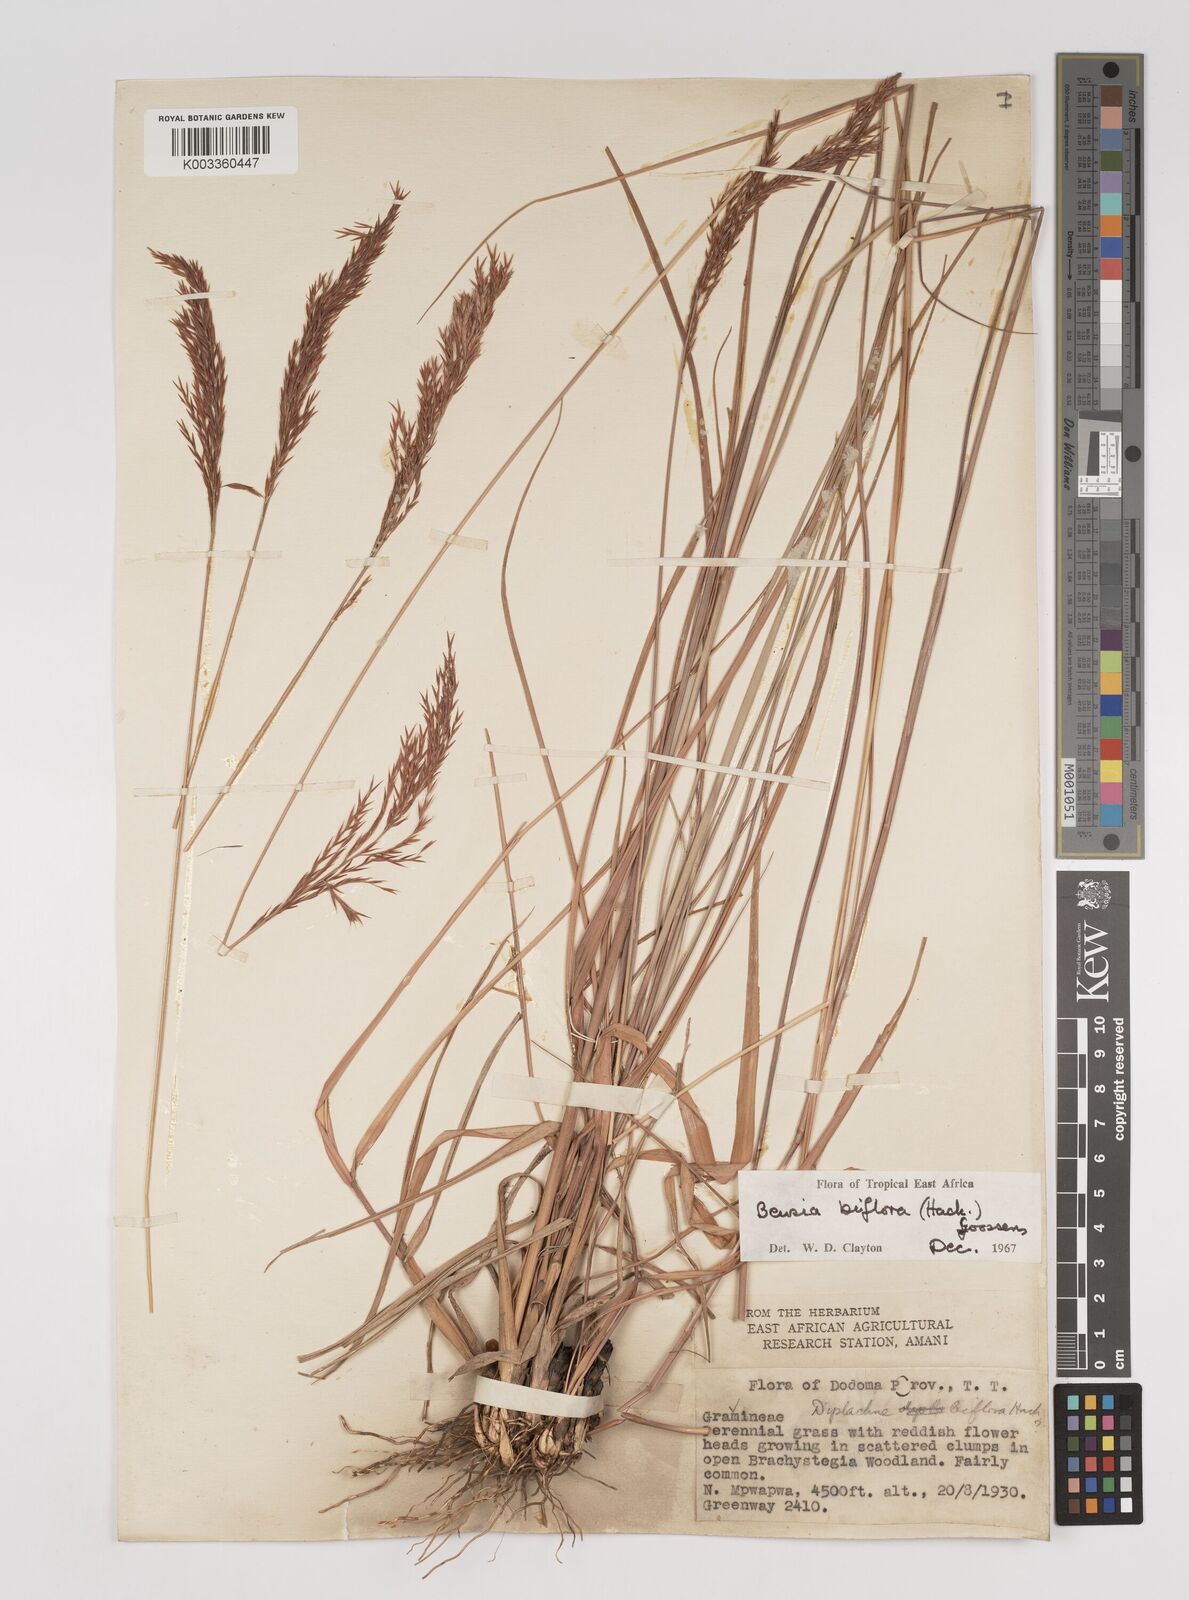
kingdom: Plantae
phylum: Tracheophyta
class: Liliopsida
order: Poales
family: Poaceae
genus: Bewsia
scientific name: Bewsia biflora
